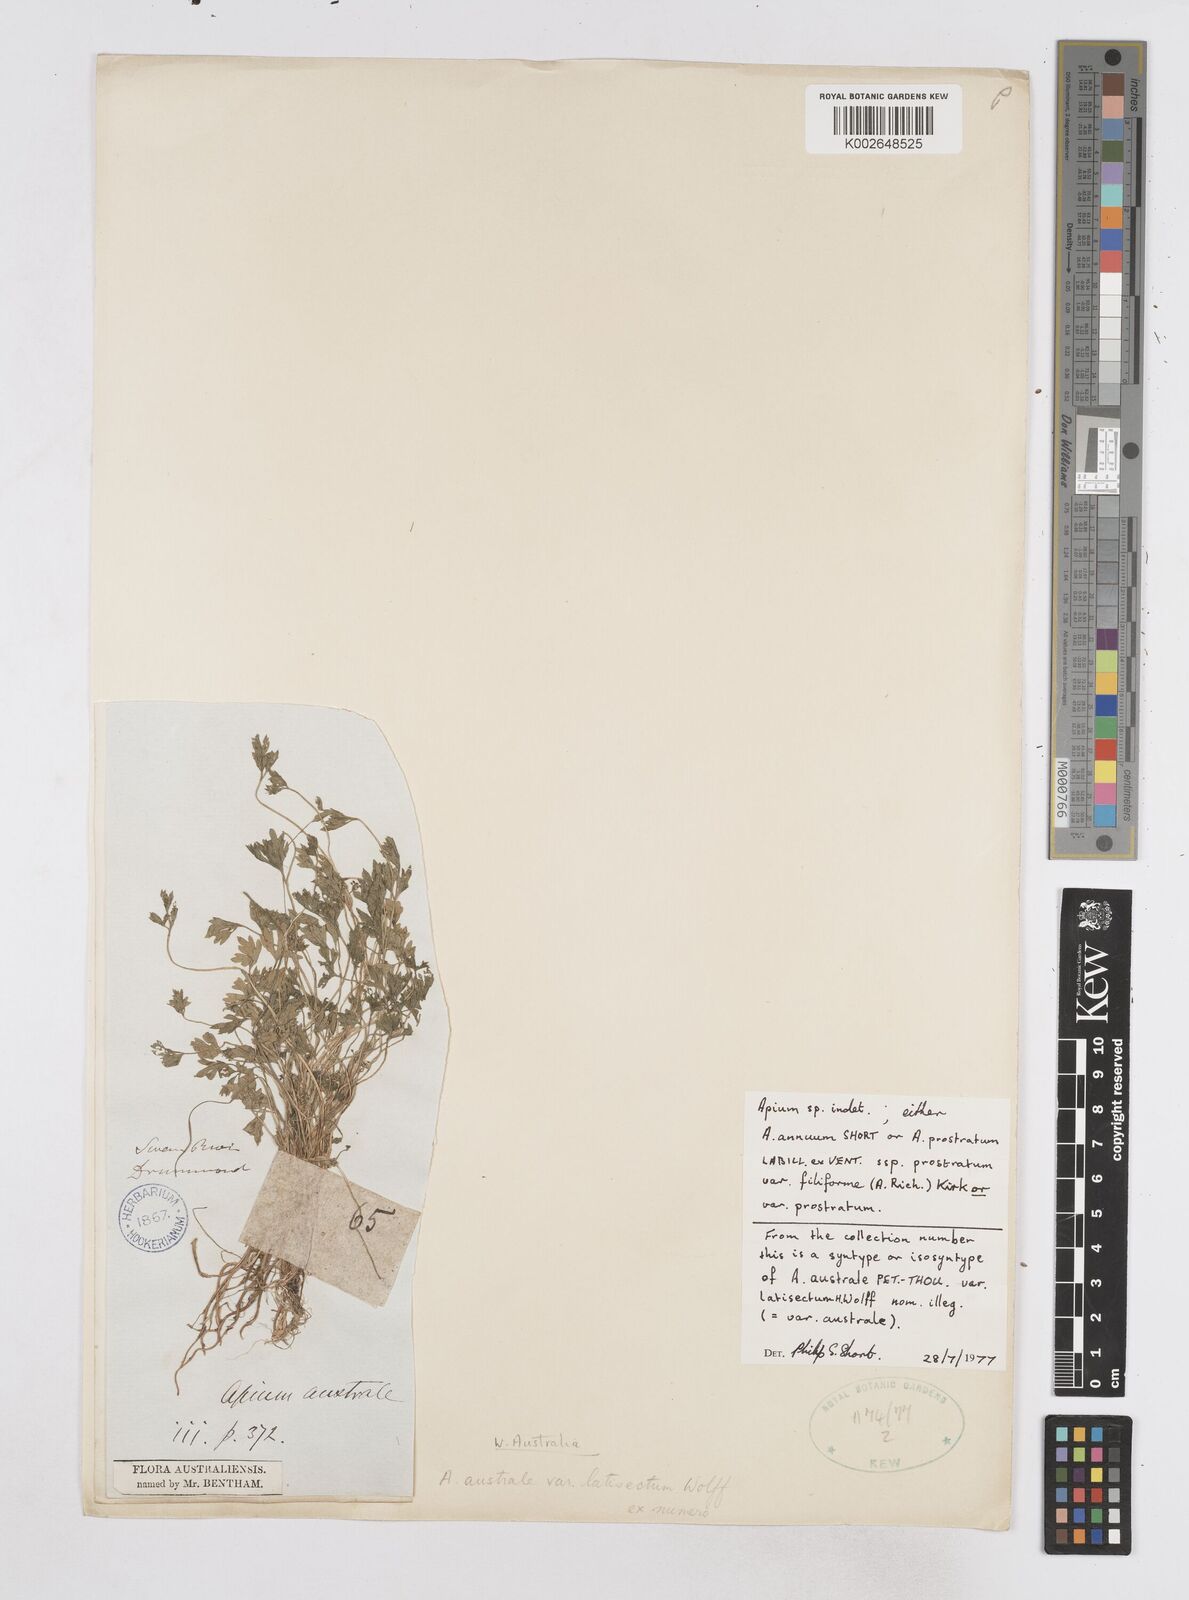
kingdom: Plantae
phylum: Tracheophyta
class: Magnoliopsida
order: Apiales
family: Apiaceae
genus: Apium
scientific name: Apium prostratum
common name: Prostrate marshwort
